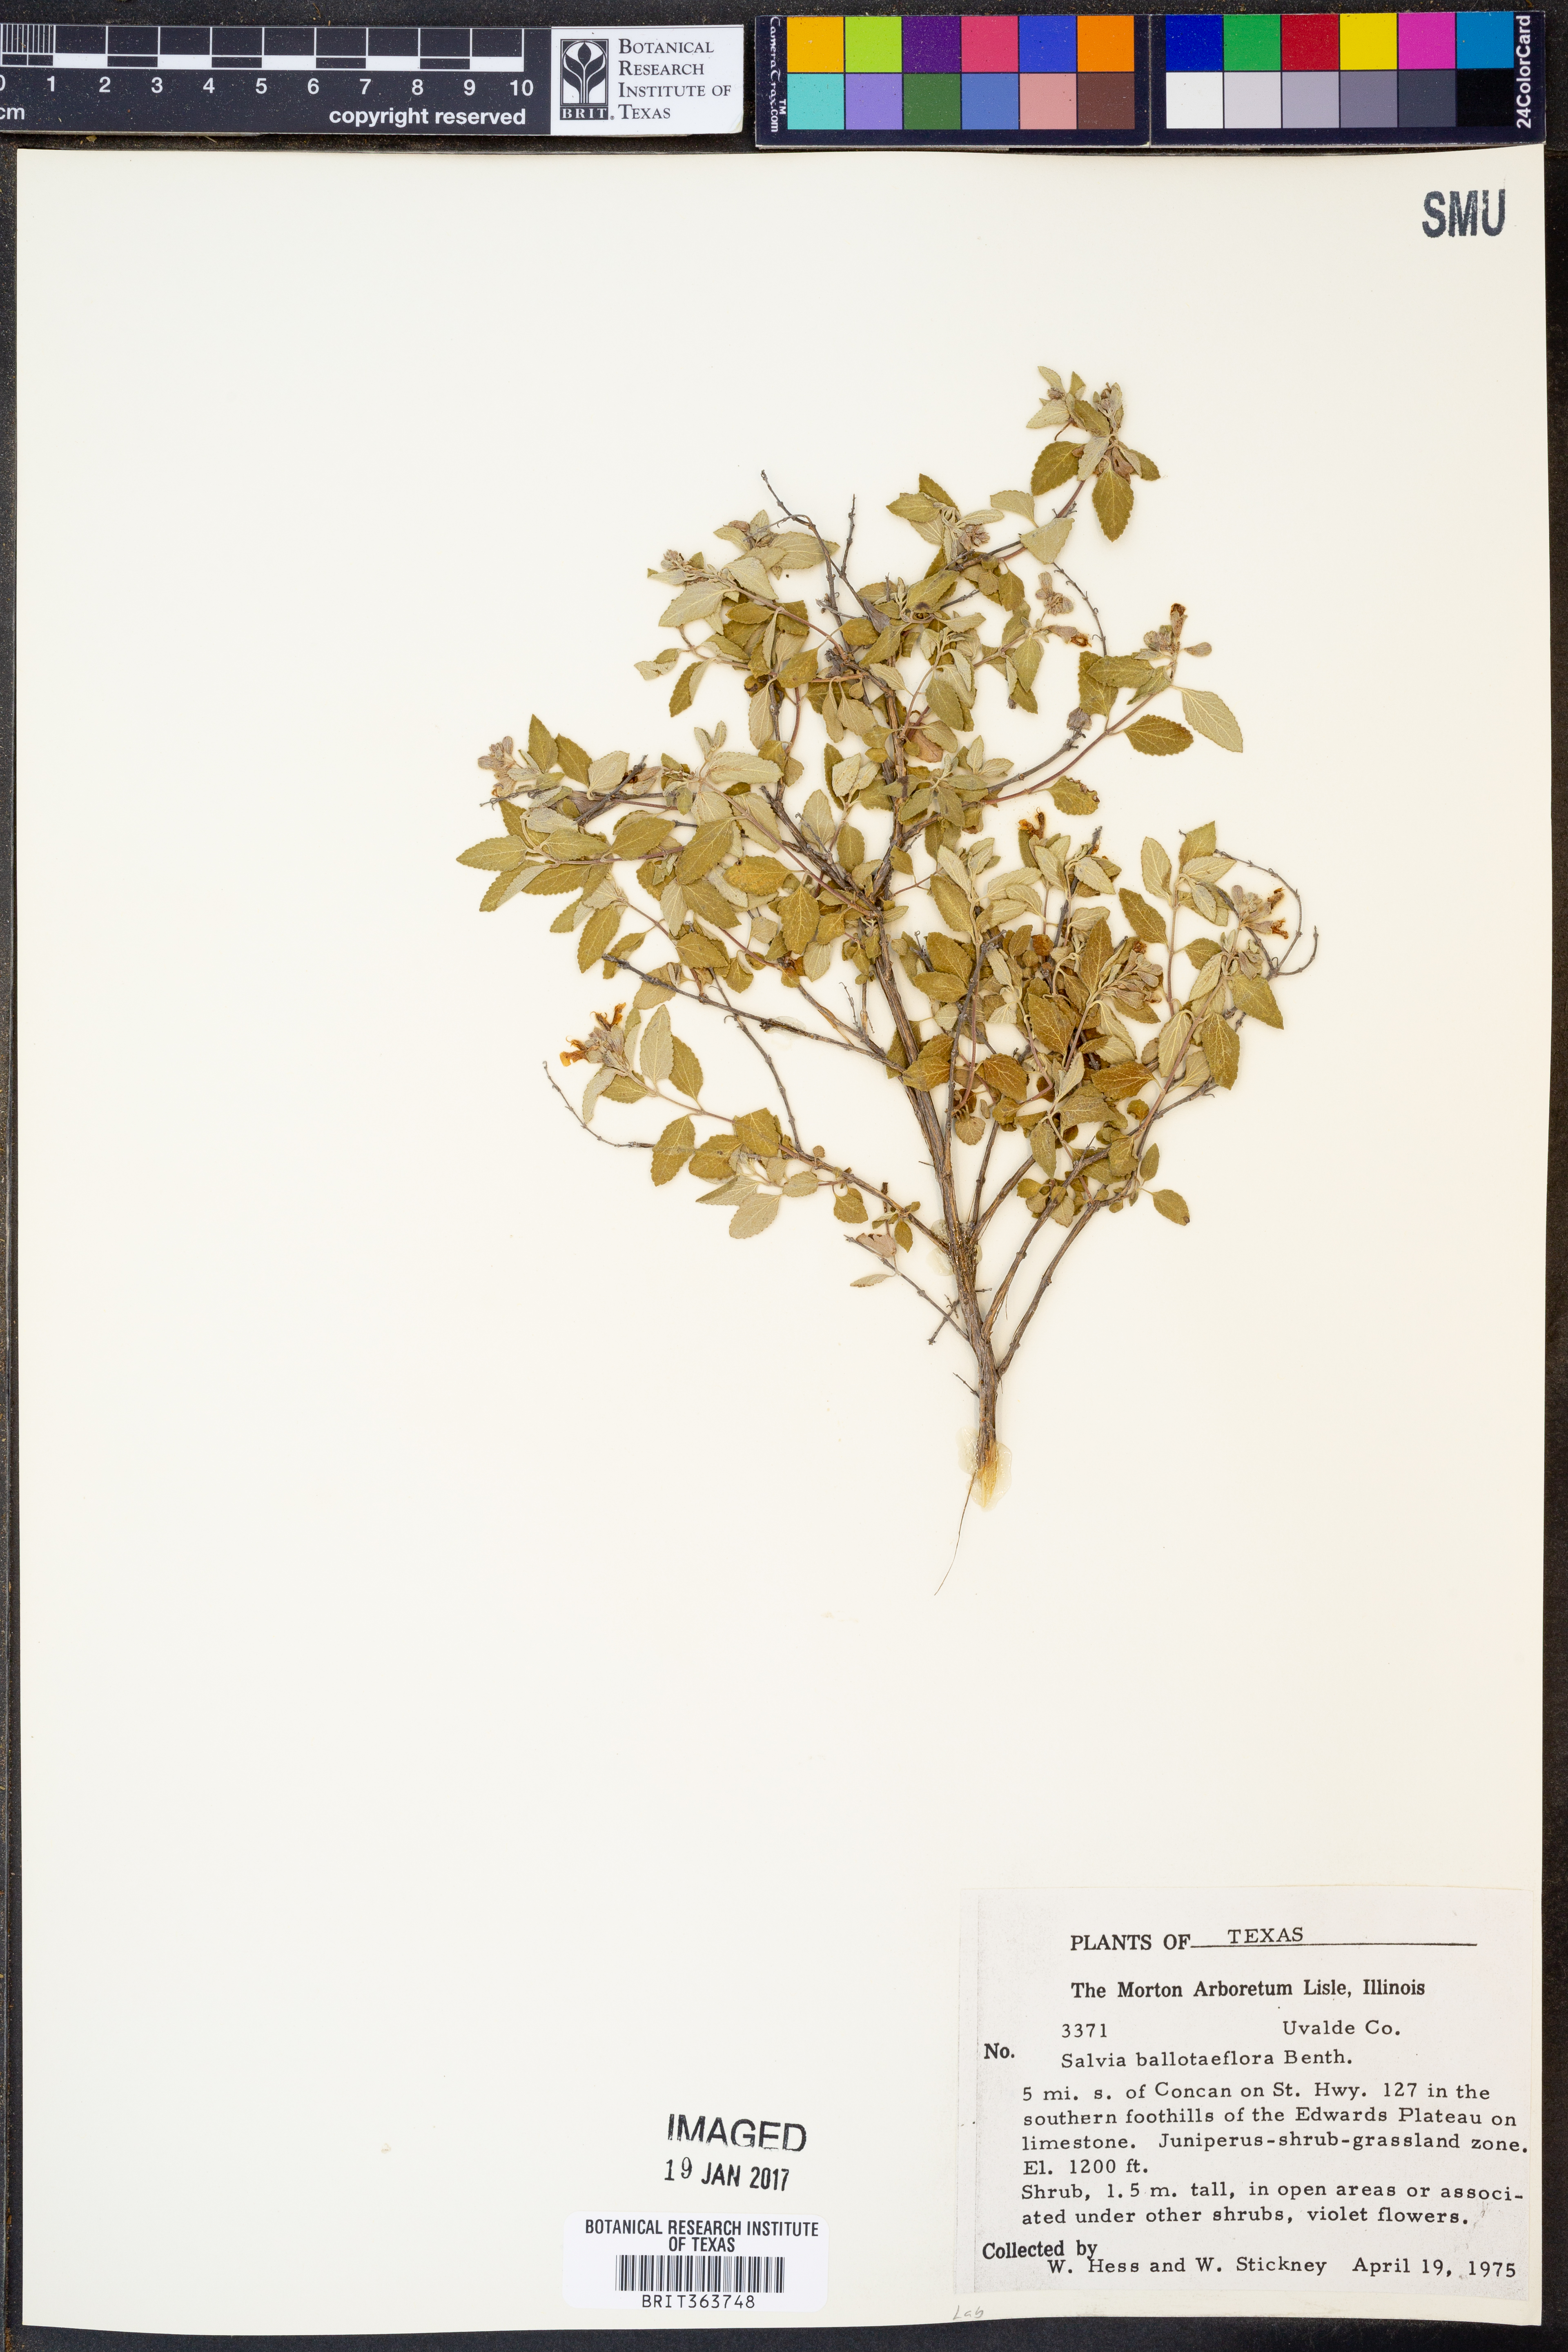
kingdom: Plantae
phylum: Tracheophyta
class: Magnoliopsida
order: Lamiales
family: Lamiaceae
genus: Salvia
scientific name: Salvia ballotiflora
